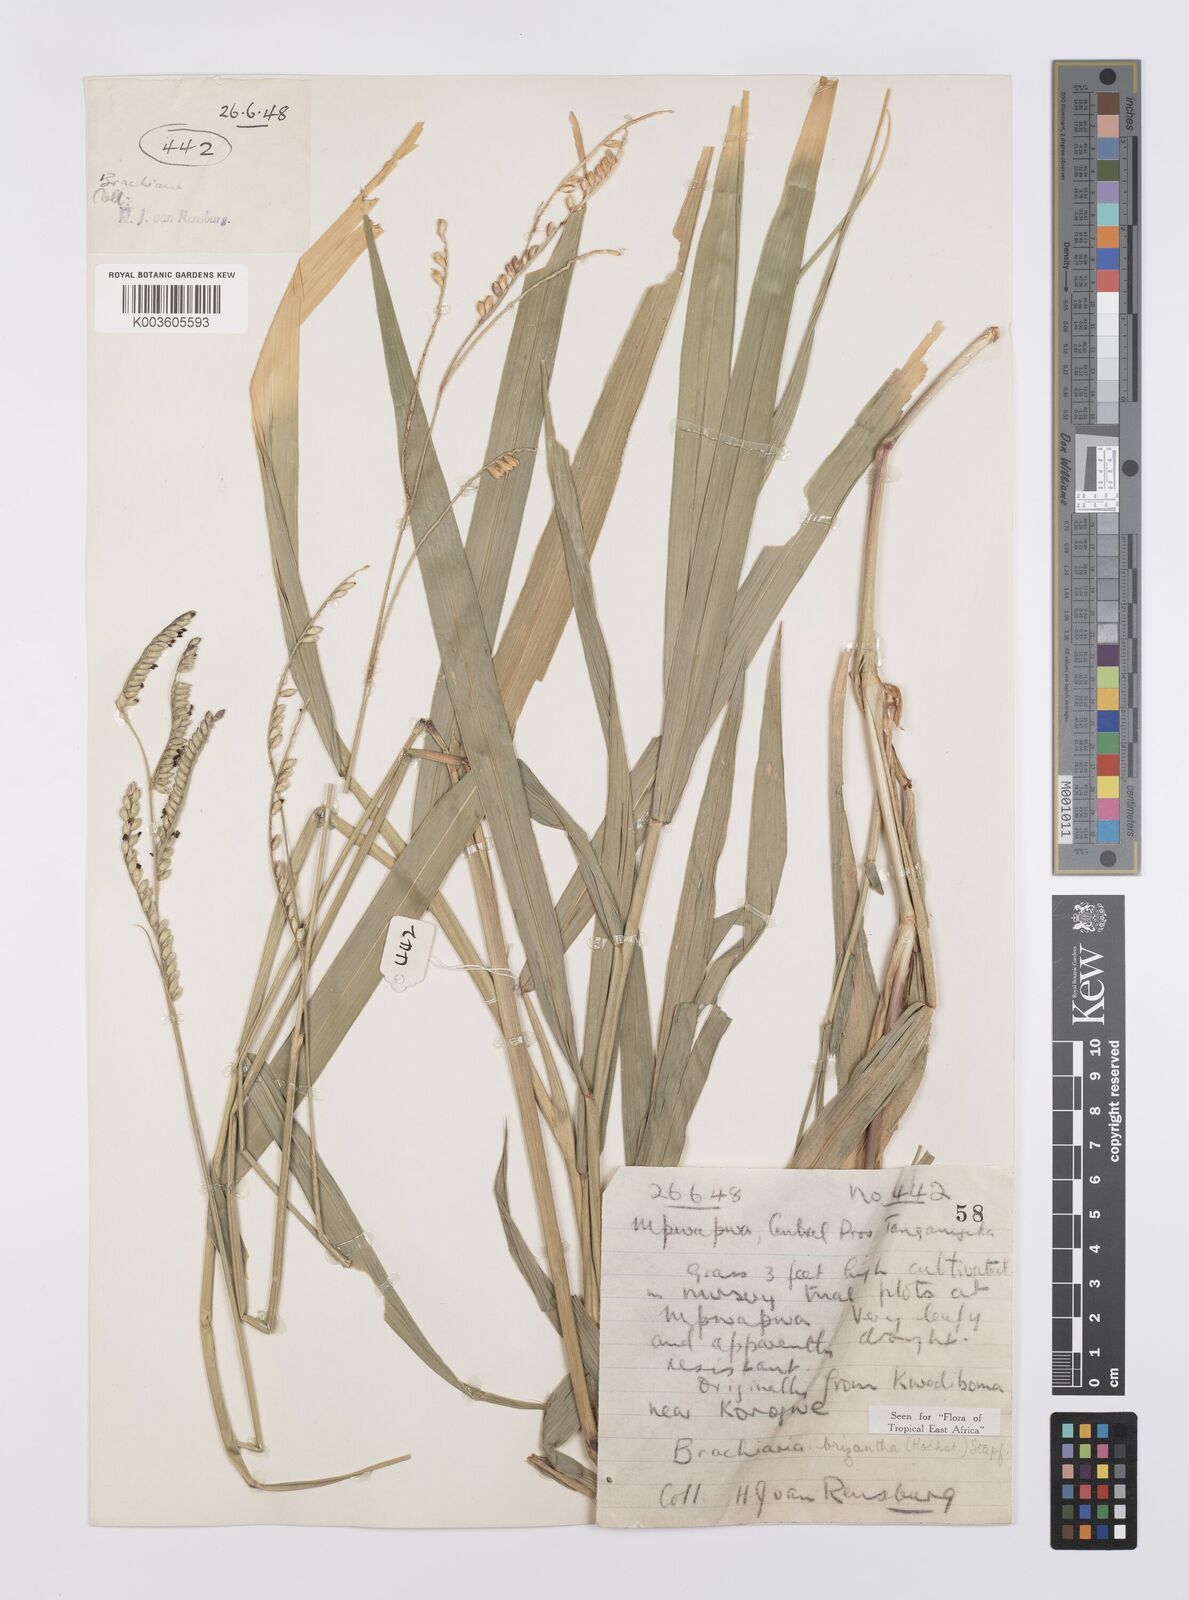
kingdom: Plantae
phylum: Tracheophyta
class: Liliopsida
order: Poales
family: Poaceae
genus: Urochloa
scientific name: Urochloa brizantha
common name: Palisade signalgrass
